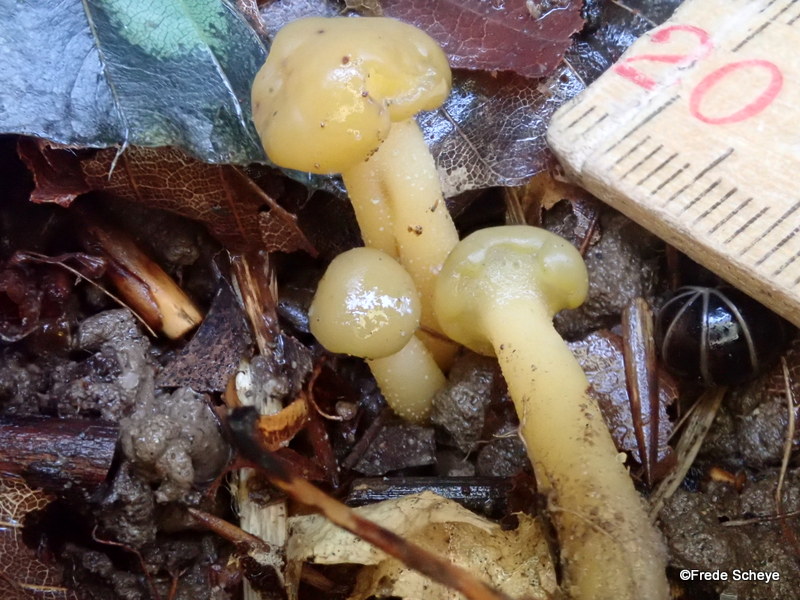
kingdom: Fungi
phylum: Ascomycota
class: Leotiomycetes
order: Leotiales
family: Leotiaceae
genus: Leotia
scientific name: Leotia lubrica
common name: ravsvamp
